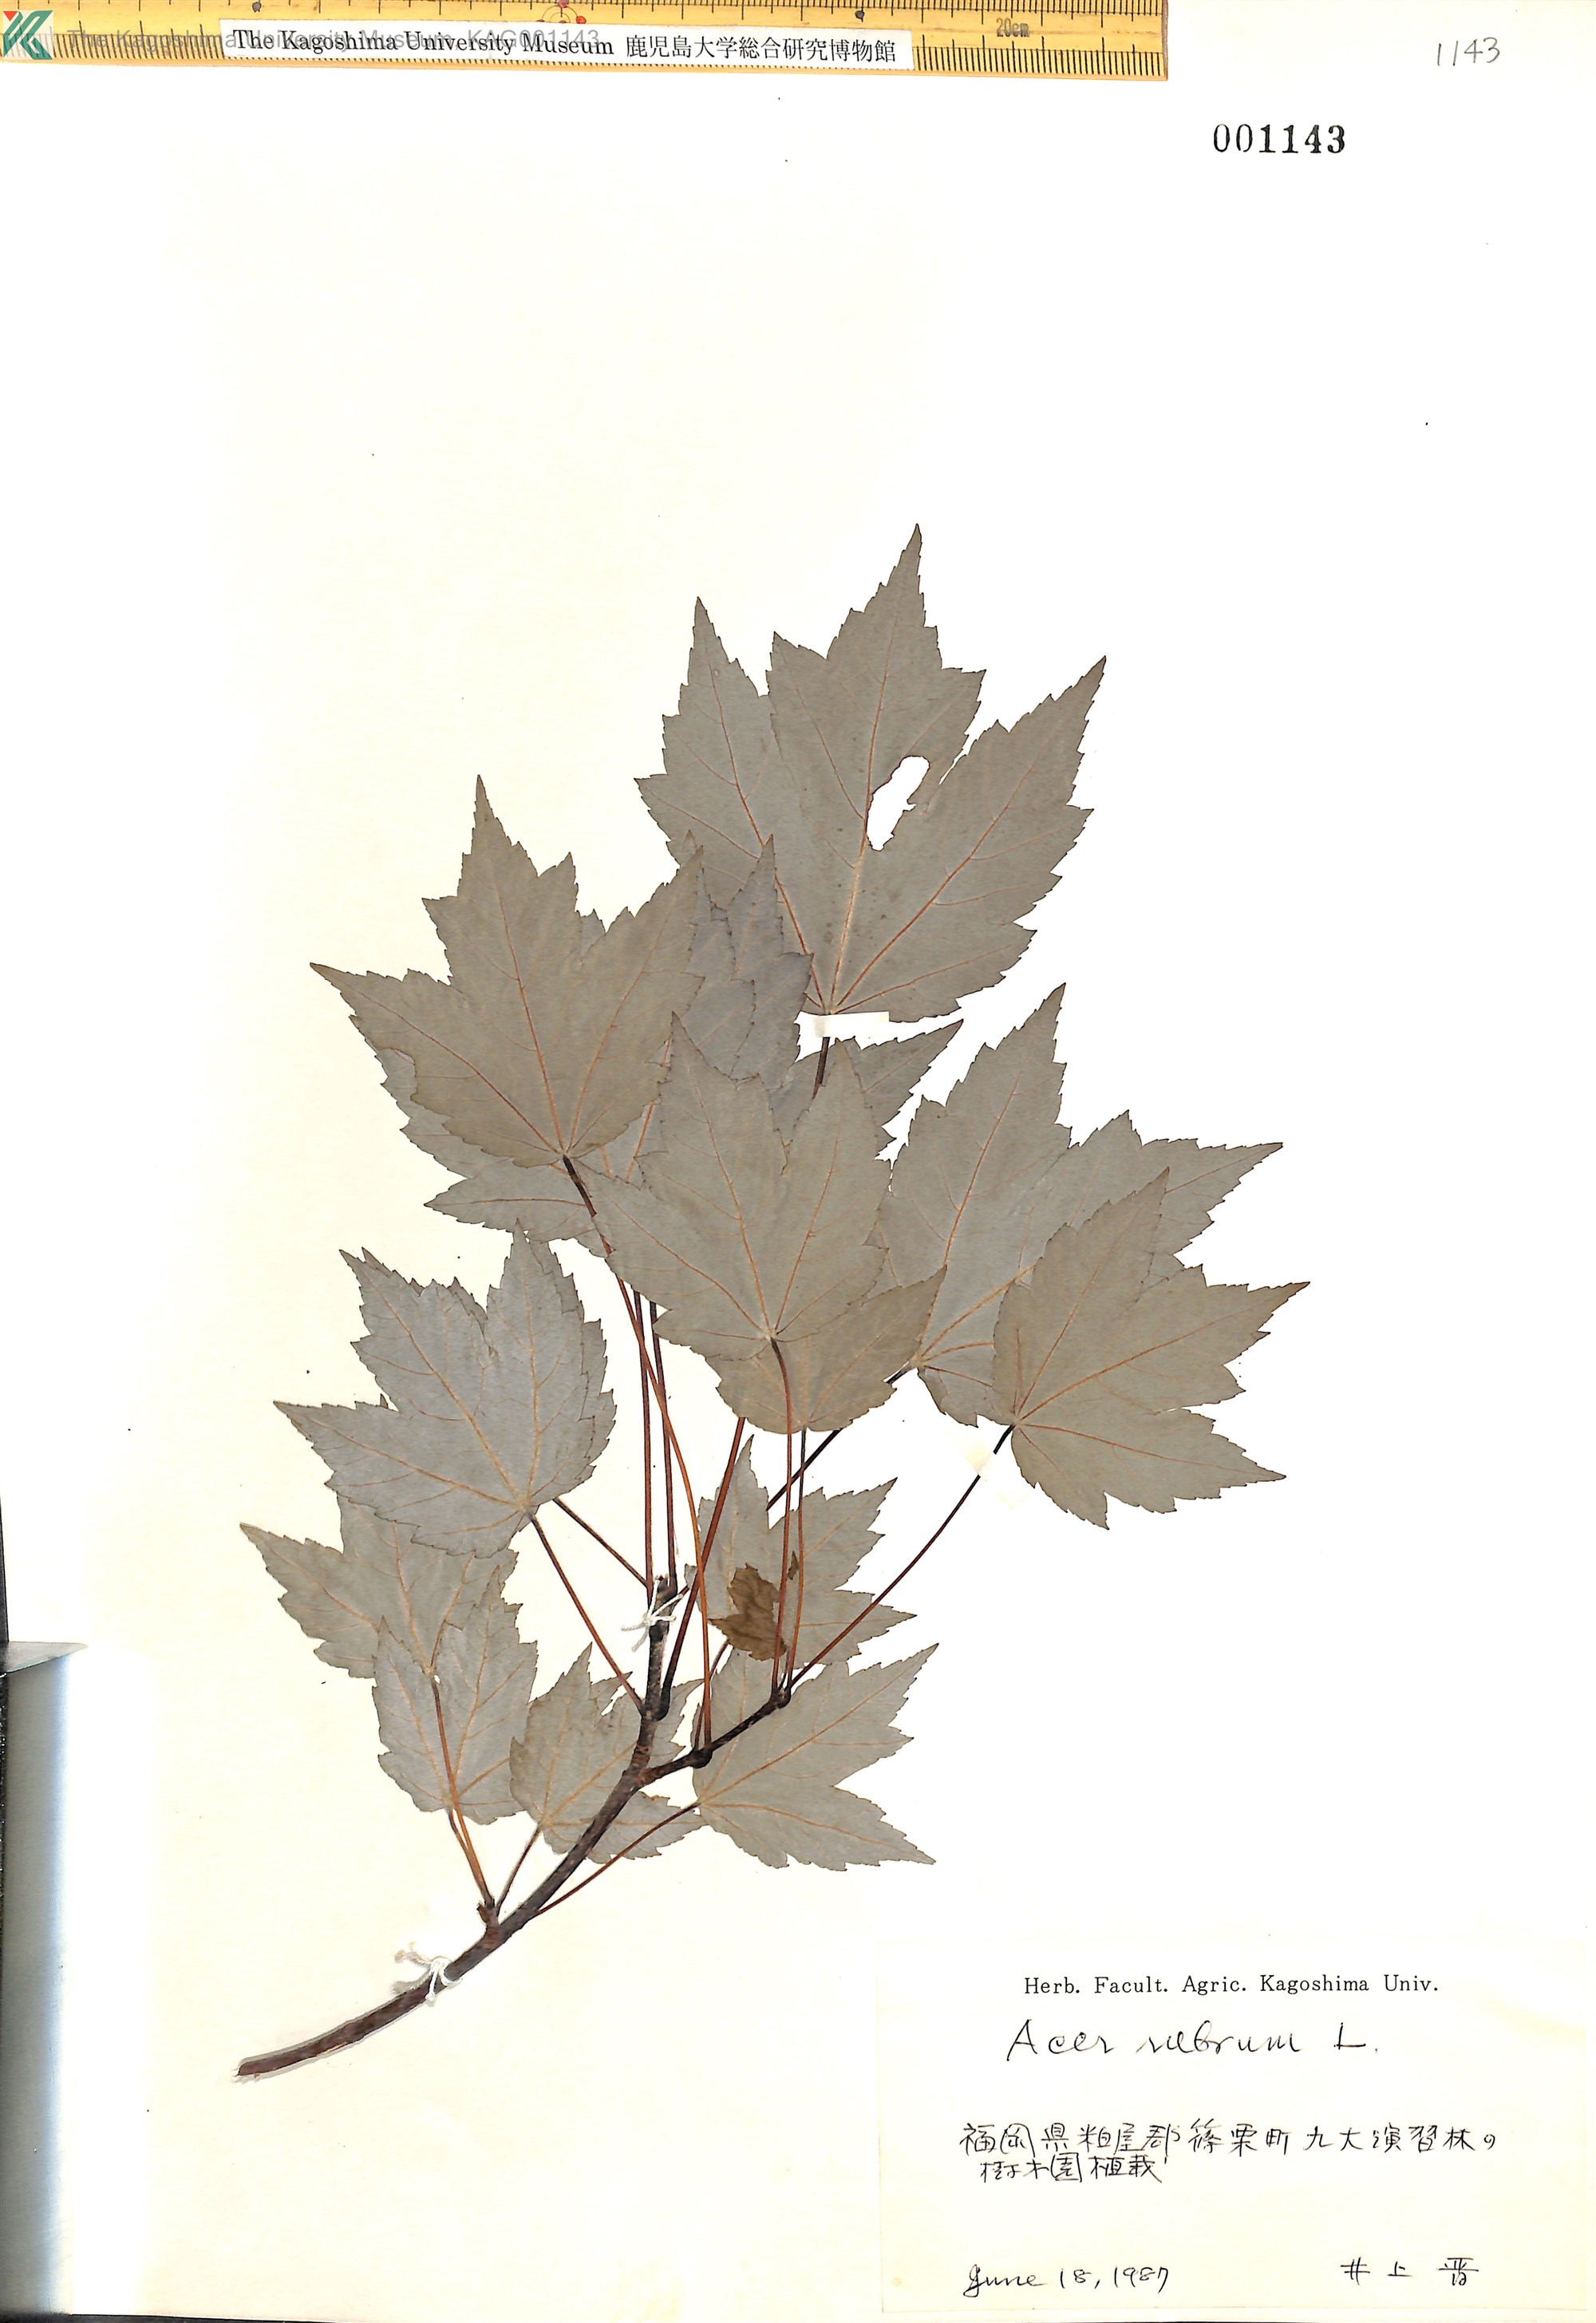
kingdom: Plantae
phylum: Tracheophyta
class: Magnoliopsida
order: Sapindales
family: Sapindaceae
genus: Acer
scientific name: Acer rubrum
